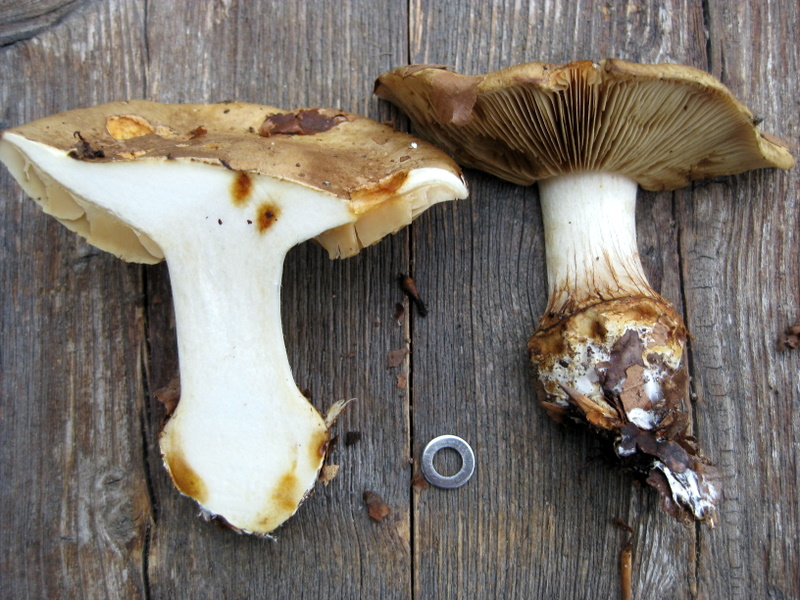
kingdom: Fungi
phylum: Basidiomycota
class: Agaricomycetes
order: Agaricales
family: Cortinariaceae
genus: Calonarius
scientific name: Calonarius flavovirens
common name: mel-slørhat
